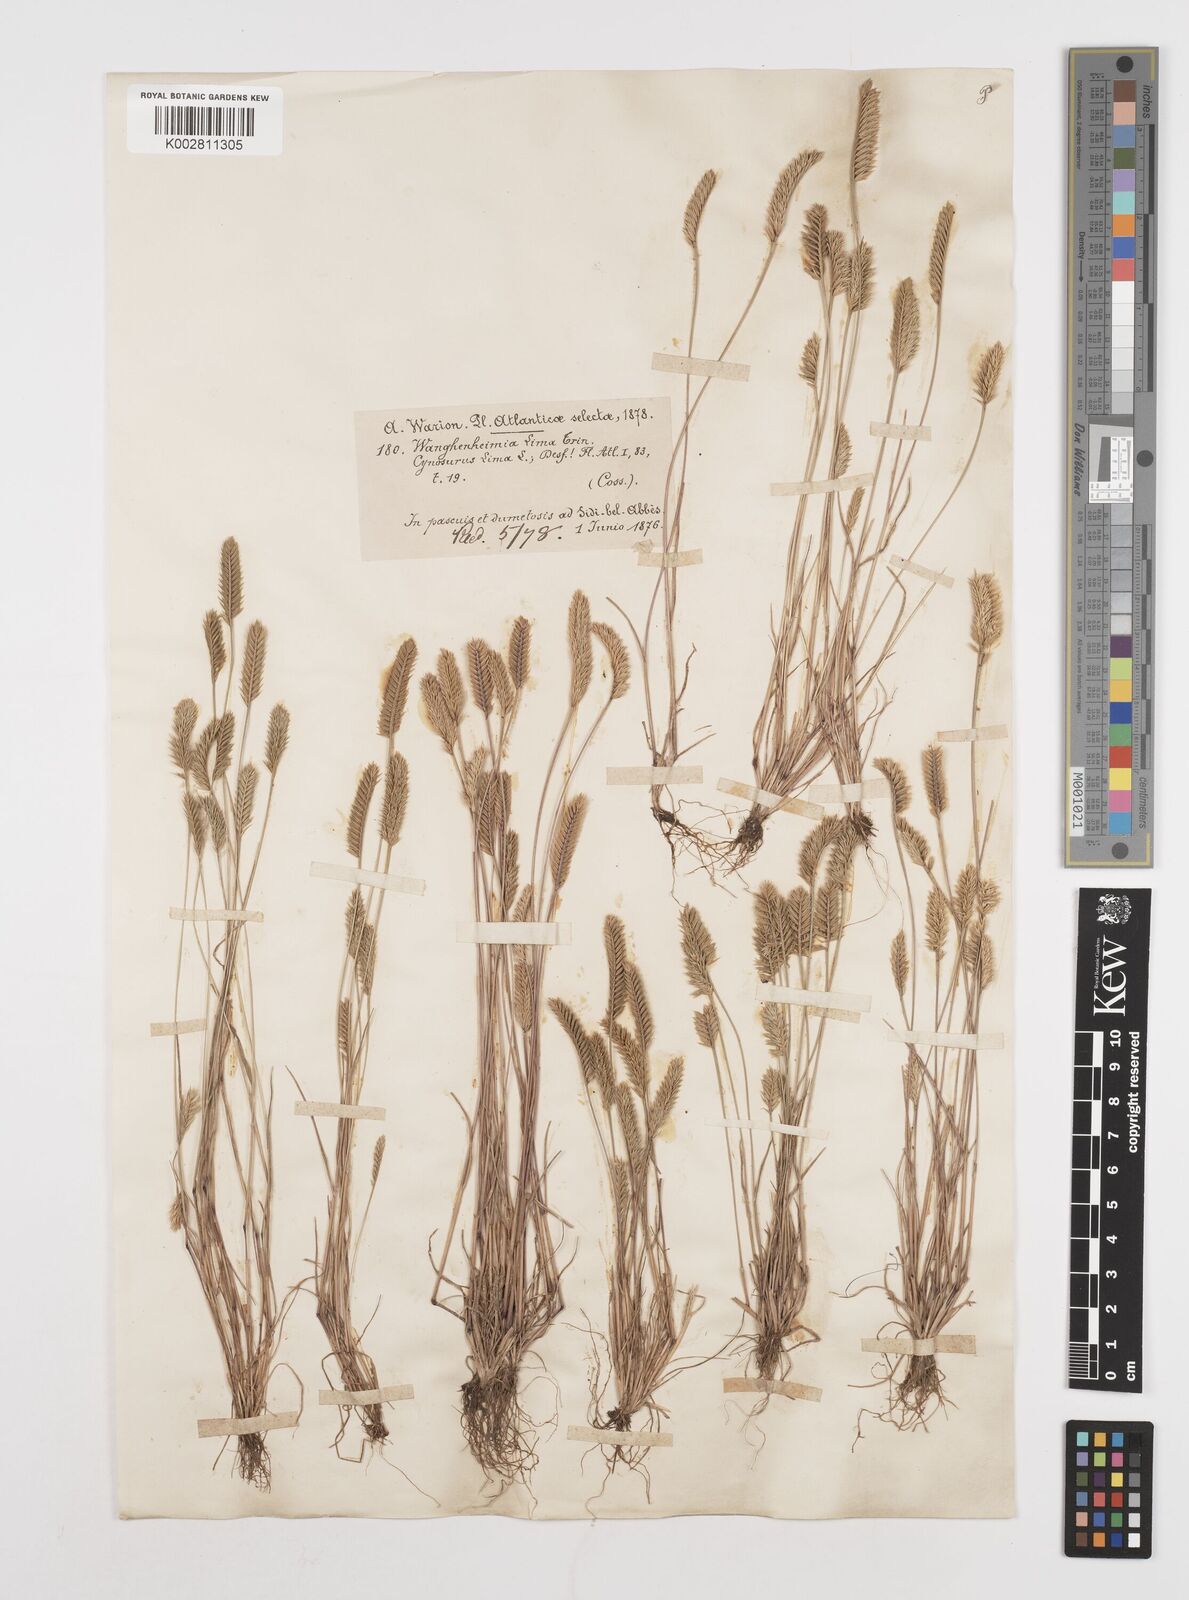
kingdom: Plantae
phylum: Tracheophyta
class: Liliopsida
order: Poales
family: Poaceae
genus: Wangenheimia
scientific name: Wangenheimia lima
